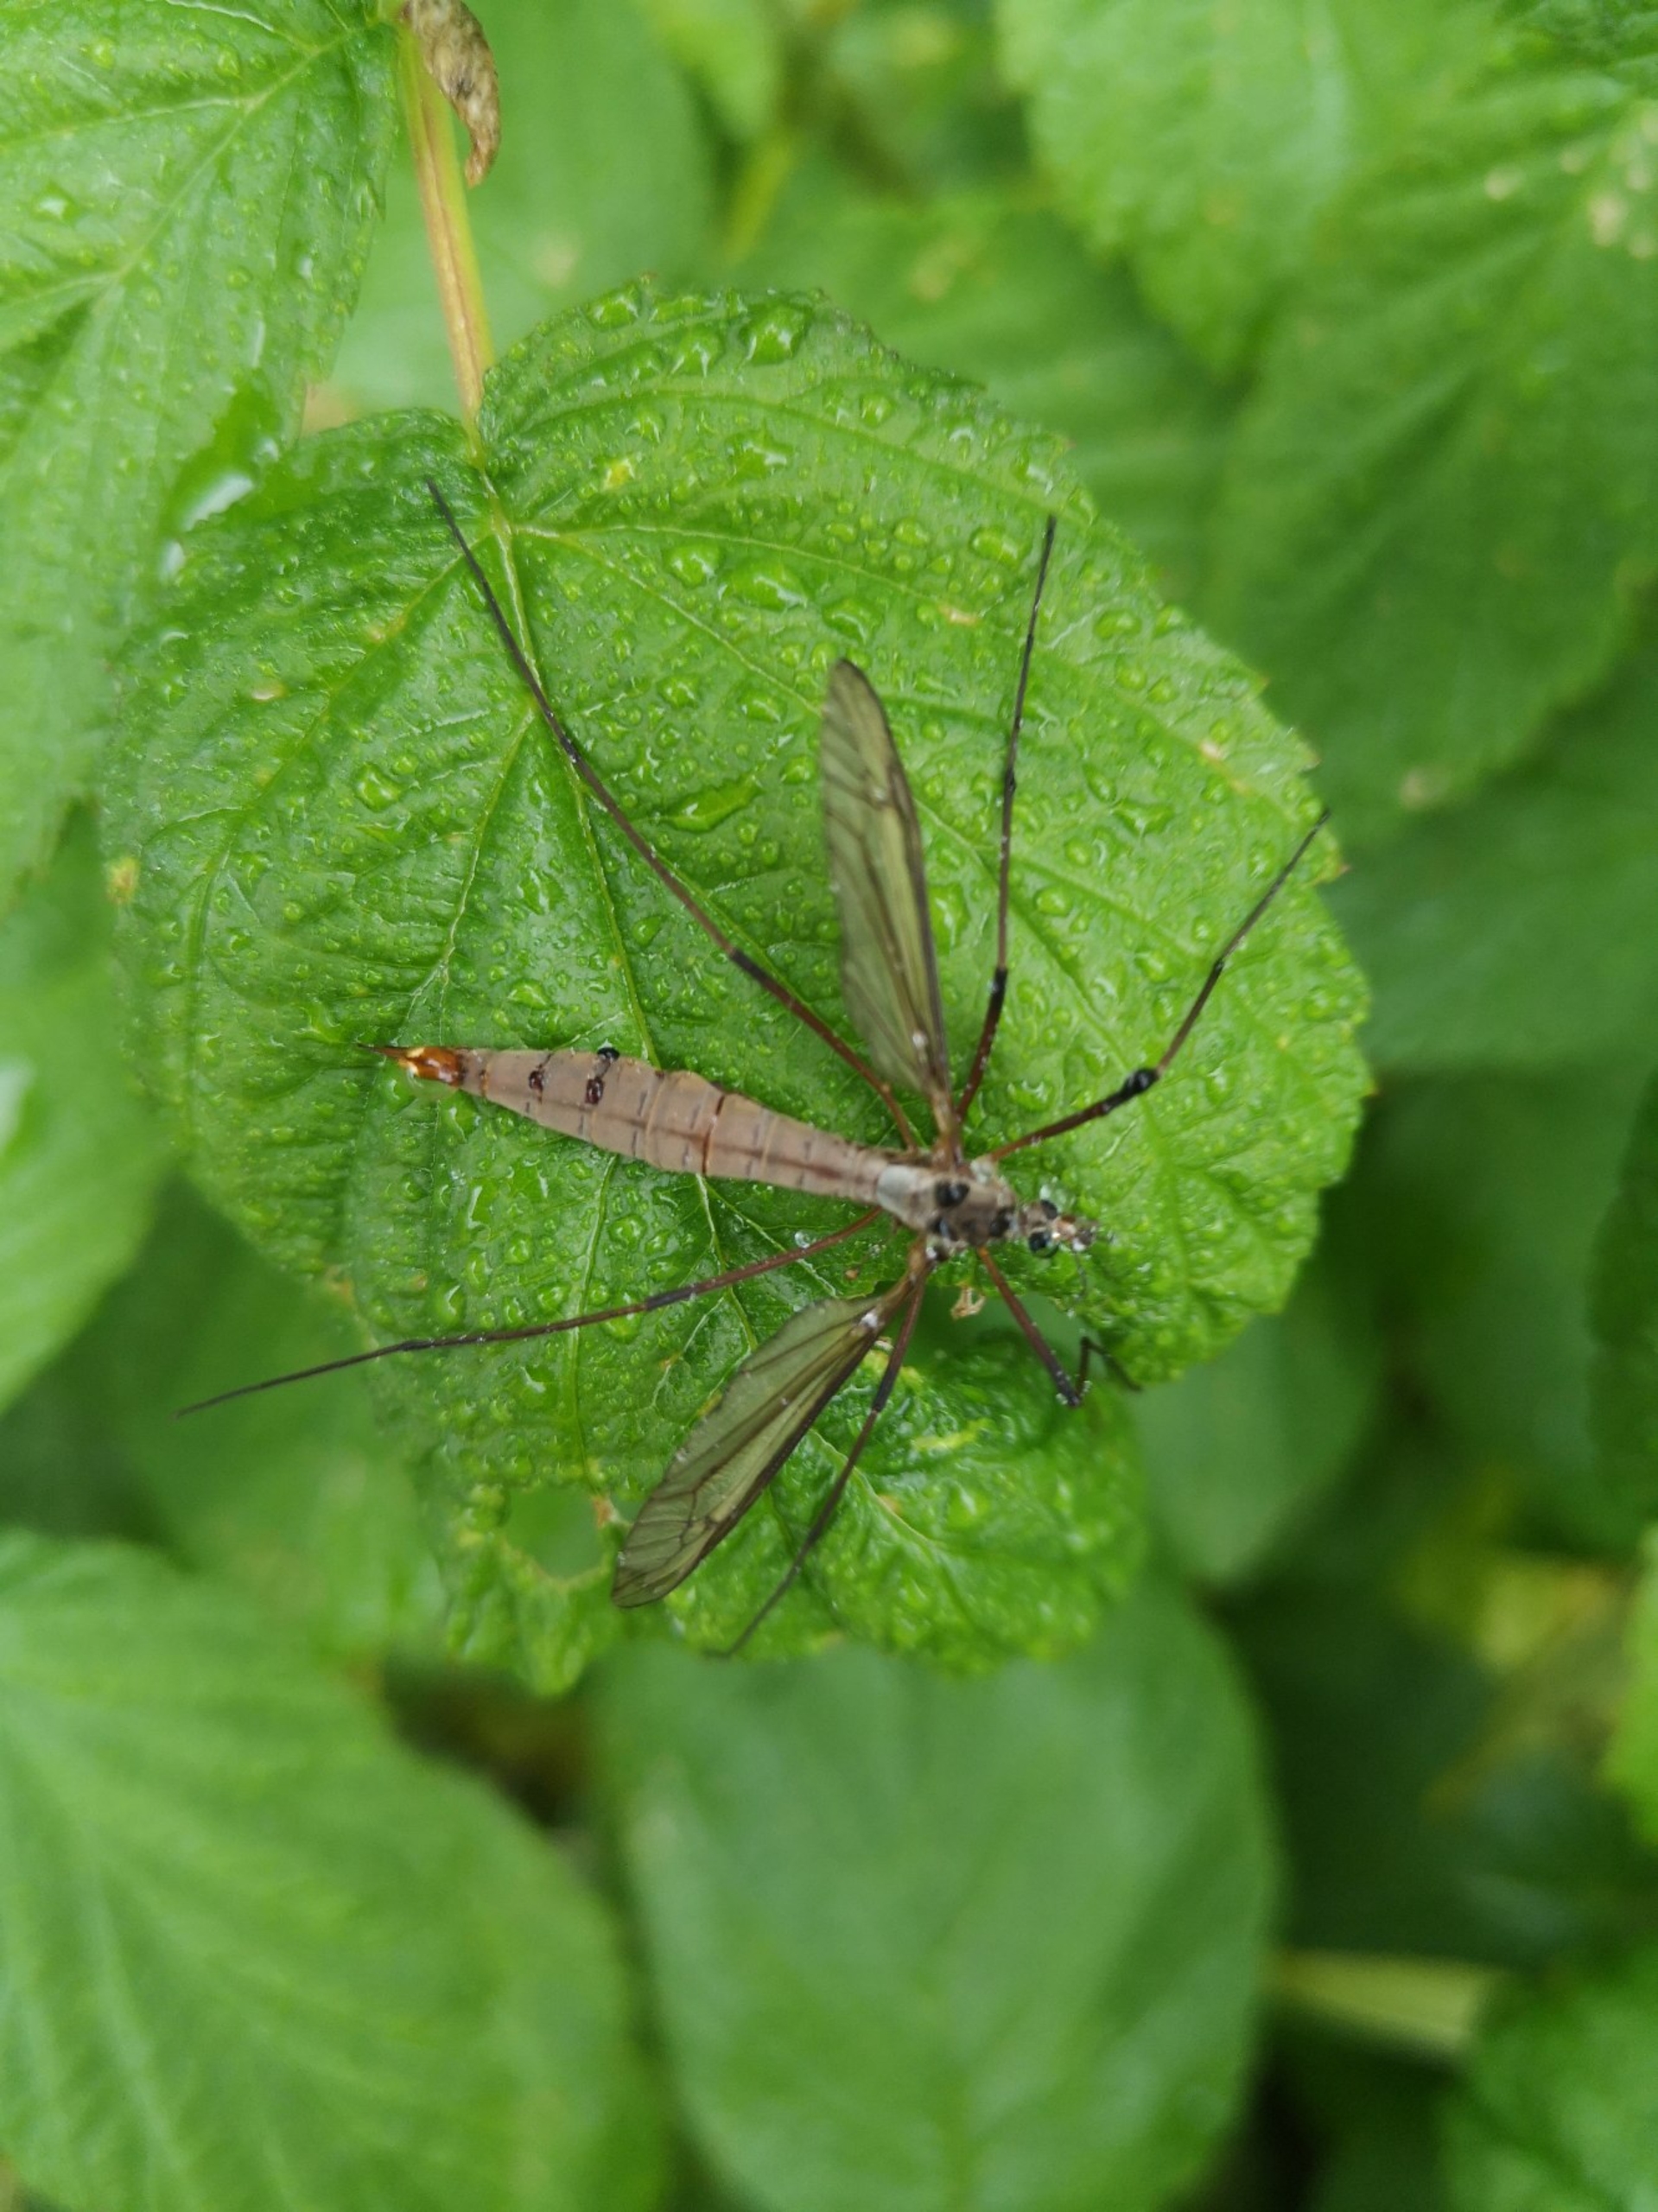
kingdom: Animalia
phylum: Arthropoda
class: Insecta
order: Diptera
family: Tipulidae
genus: Tipula
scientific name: Tipula paludosa
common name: Mosestankelben
